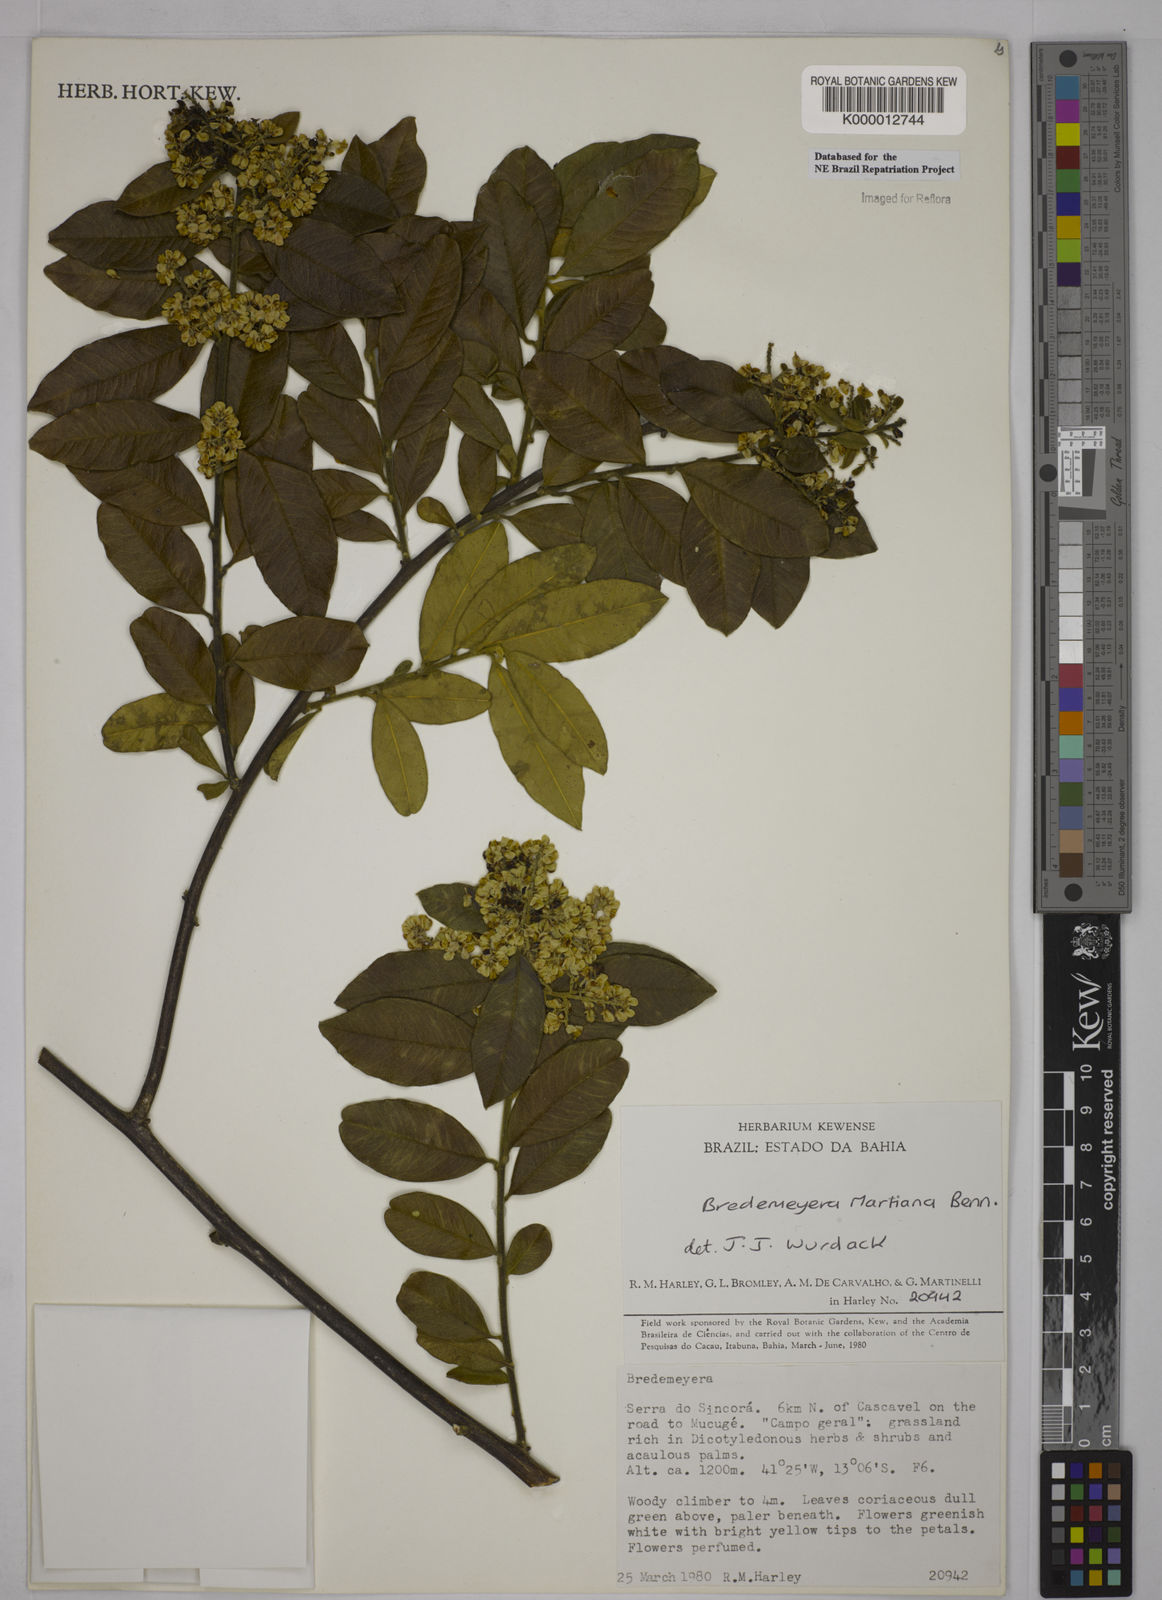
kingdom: Plantae
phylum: Tracheophyta
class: Magnoliopsida
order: Fabales
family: Polygalaceae
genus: Bredemeyera
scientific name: Bredemeyera martiana
